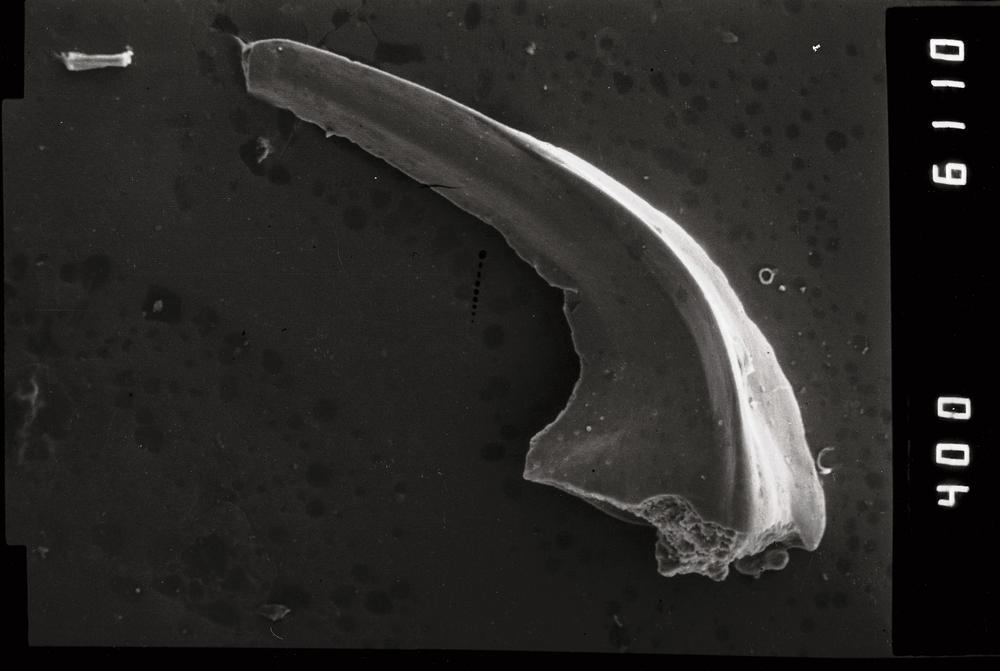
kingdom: Animalia
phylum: Annelida
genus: Paltodus
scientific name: Paltodus
